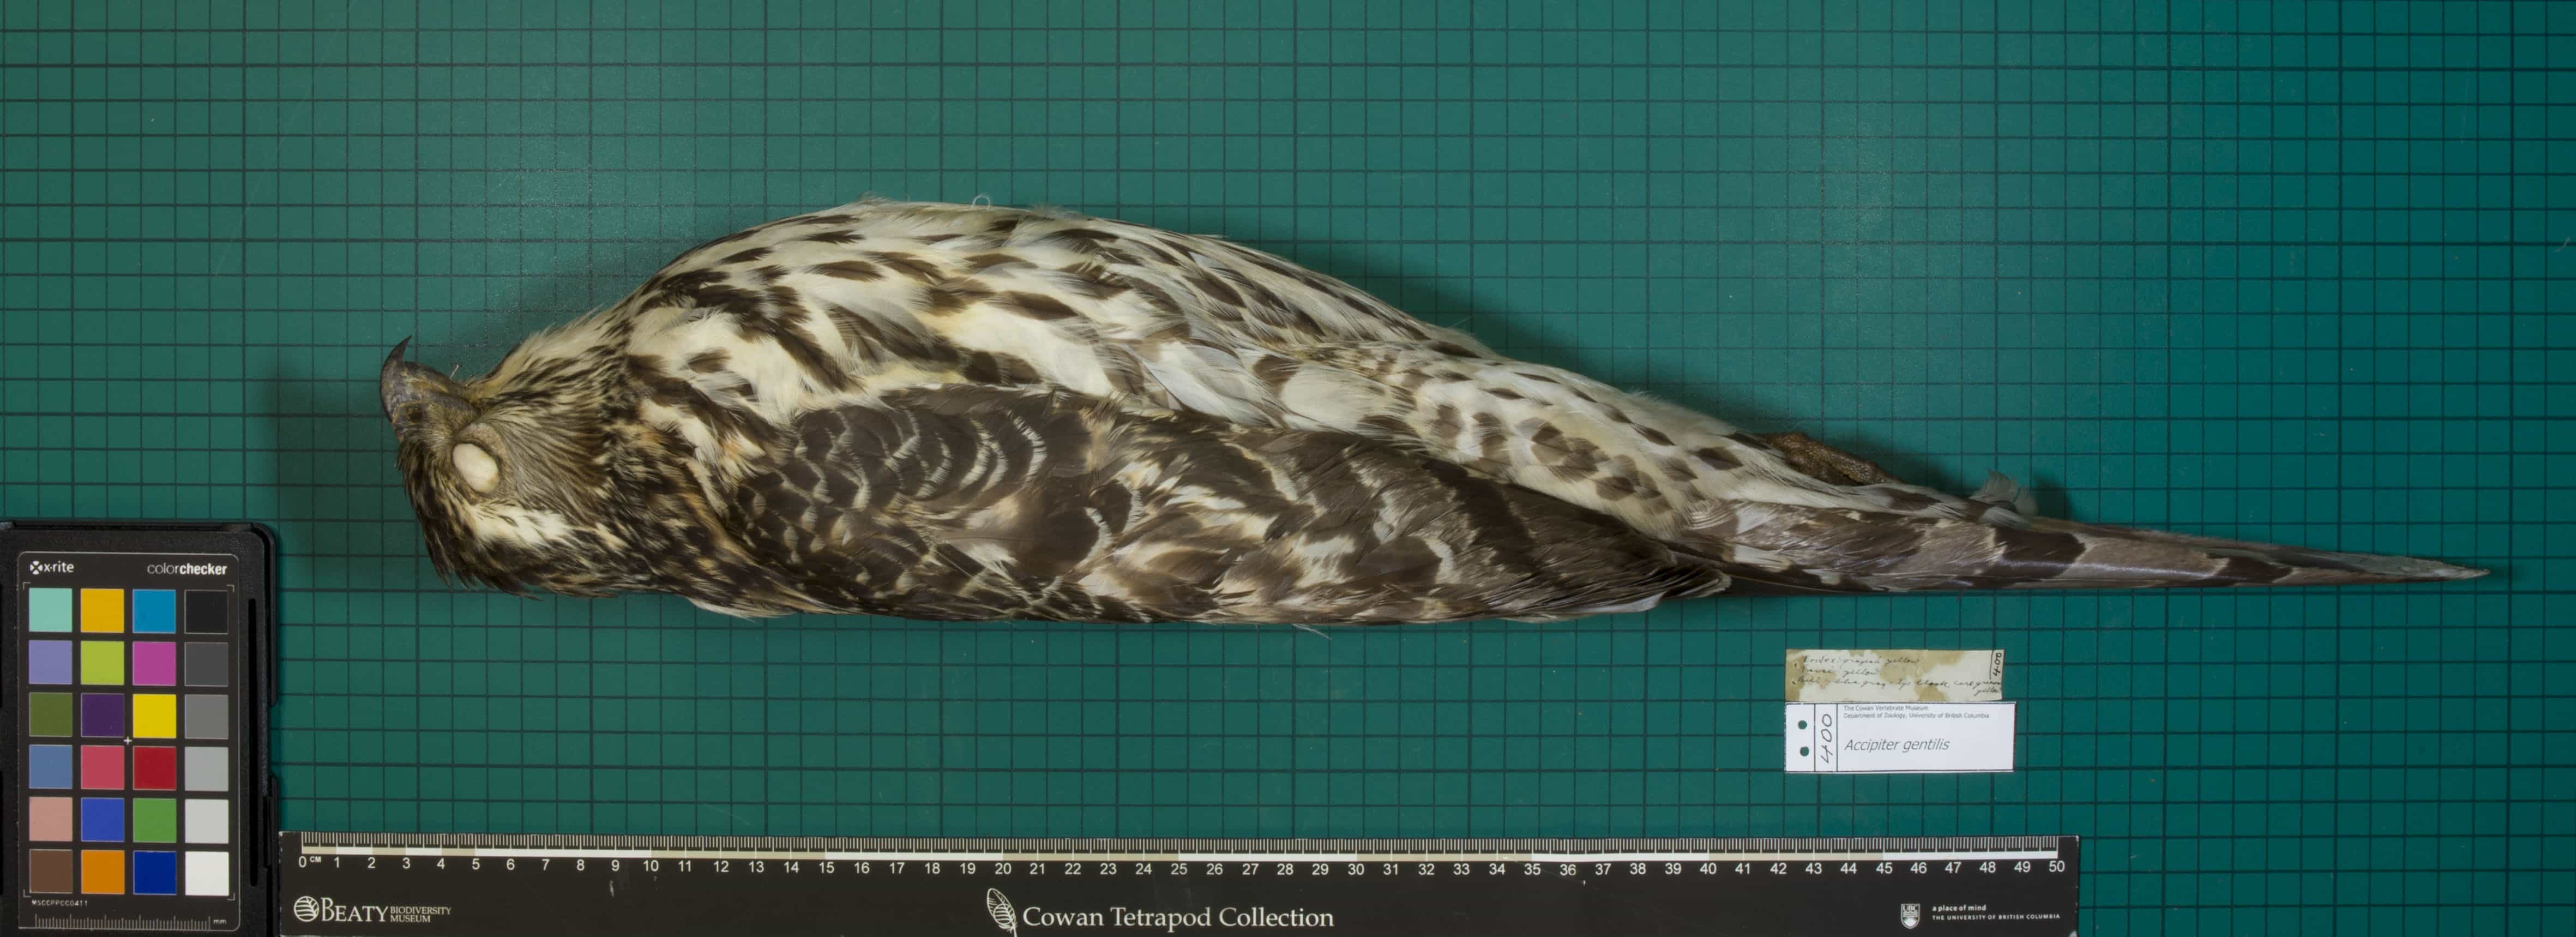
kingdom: Animalia
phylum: Chordata
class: Aves
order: Accipitriformes
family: Accipitridae
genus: Accipiter
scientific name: Accipiter gentilis
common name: Northern Goshawk
